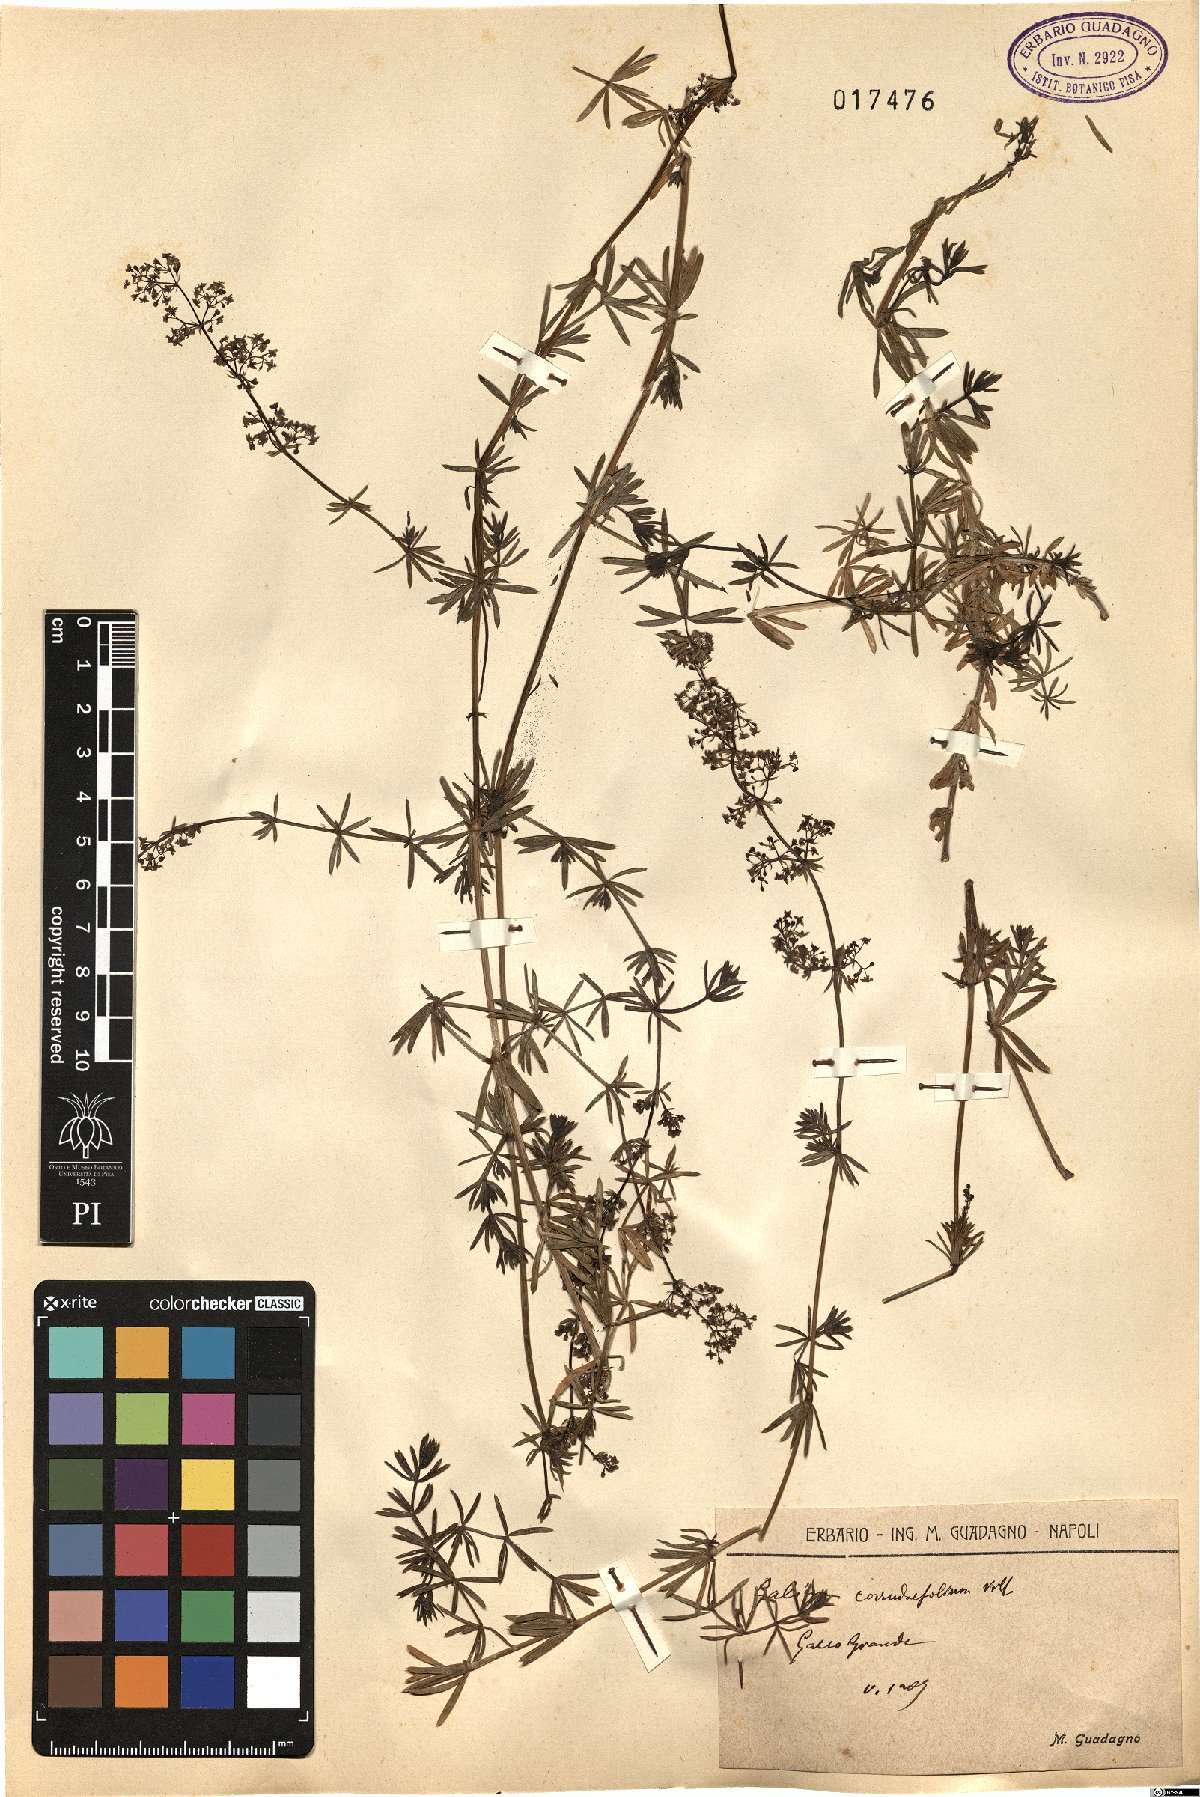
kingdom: Plantae
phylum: Tracheophyta
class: Magnoliopsida
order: Gentianales
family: Rubiaceae
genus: Galium
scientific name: Galium lucidum
